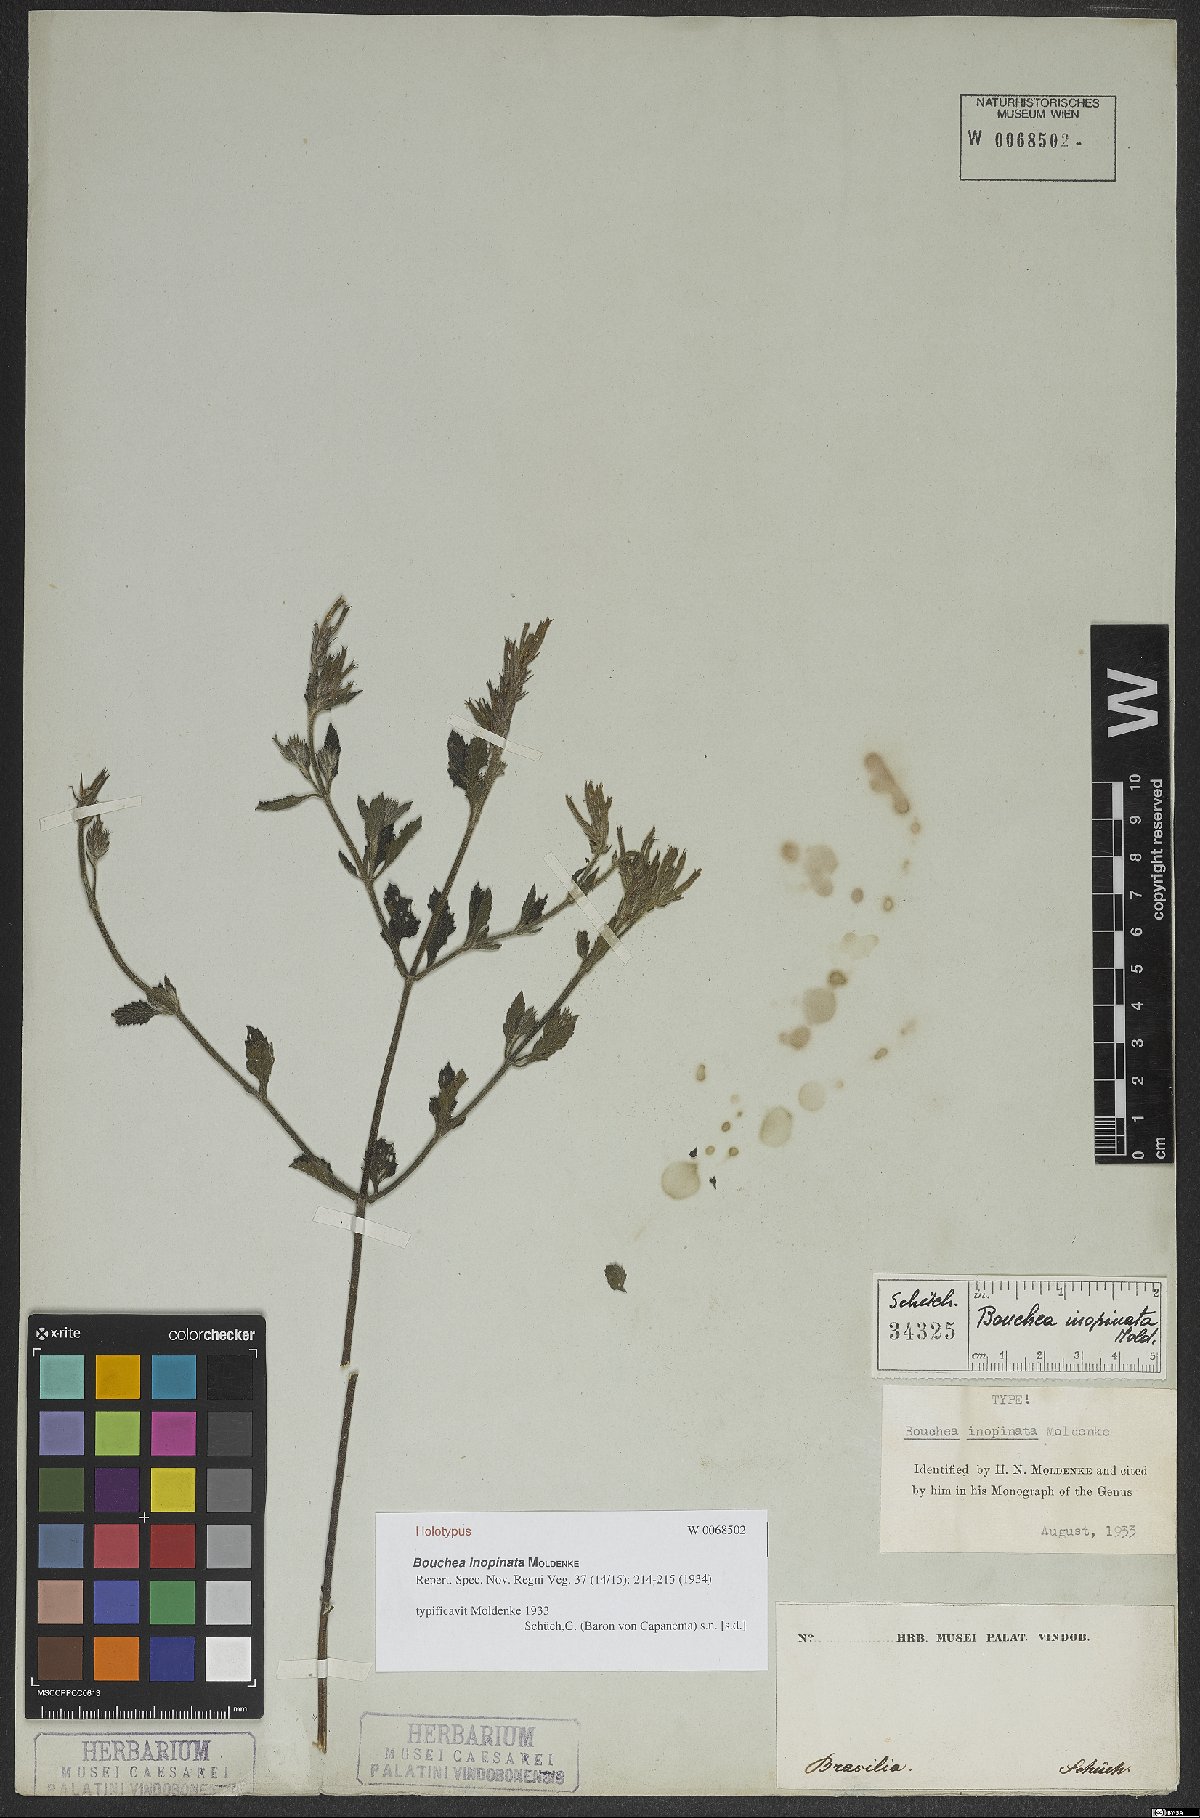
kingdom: Plantae
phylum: Tracheophyta
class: Magnoliopsida
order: Lamiales
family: Verbenaceae
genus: Bouchea
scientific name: Bouchea agrestis
